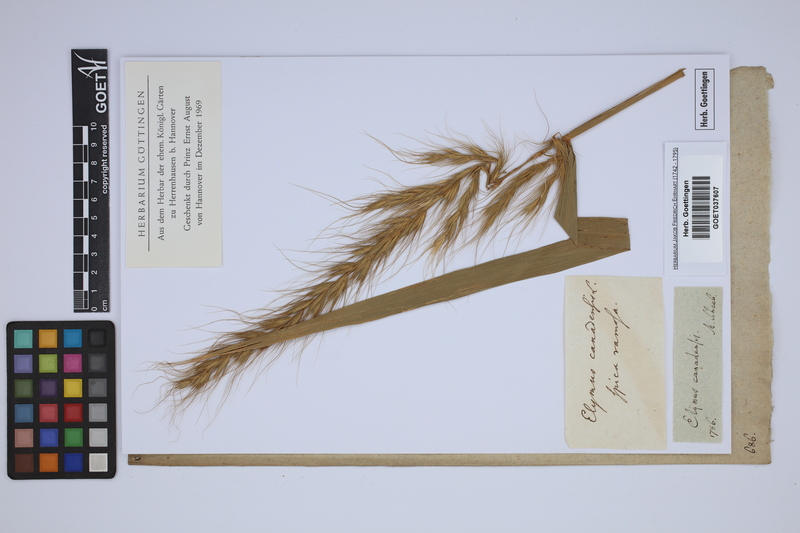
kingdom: Plantae
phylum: Tracheophyta
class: Liliopsida
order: Poales
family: Poaceae
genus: Elymus
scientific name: Elymus canadensis
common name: Canada wild rye
